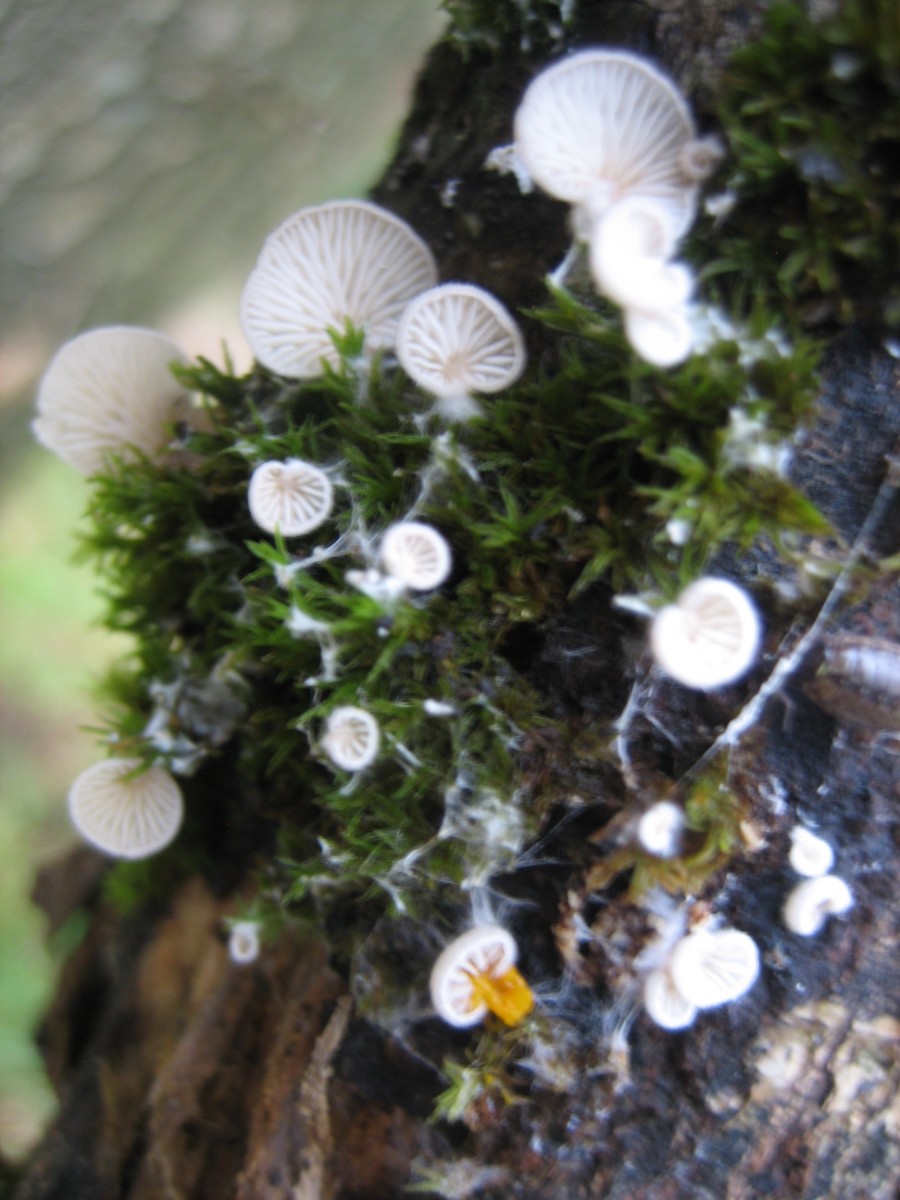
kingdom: Fungi
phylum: Basidiomycota
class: Agaricomycetes
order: Agaricales
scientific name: Agaricales
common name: champignonordenen
